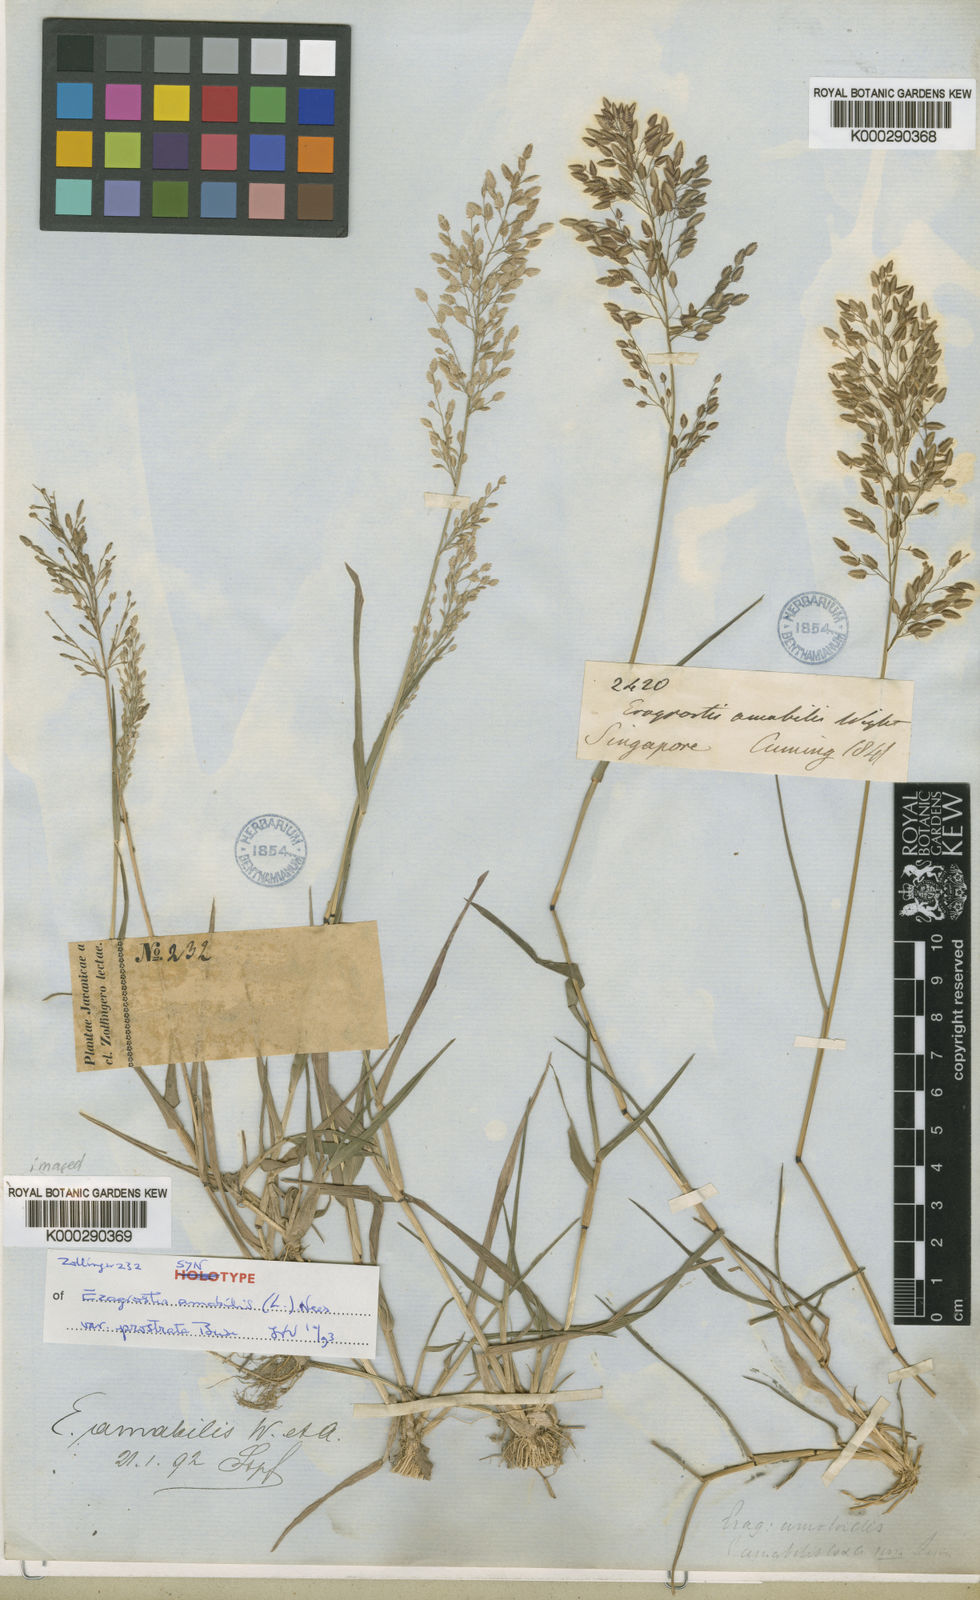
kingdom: Plantae
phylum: Tracheophyta
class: Liliopsida
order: Poales
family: Poaceae
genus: Eragrostis
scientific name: Eragrostis
